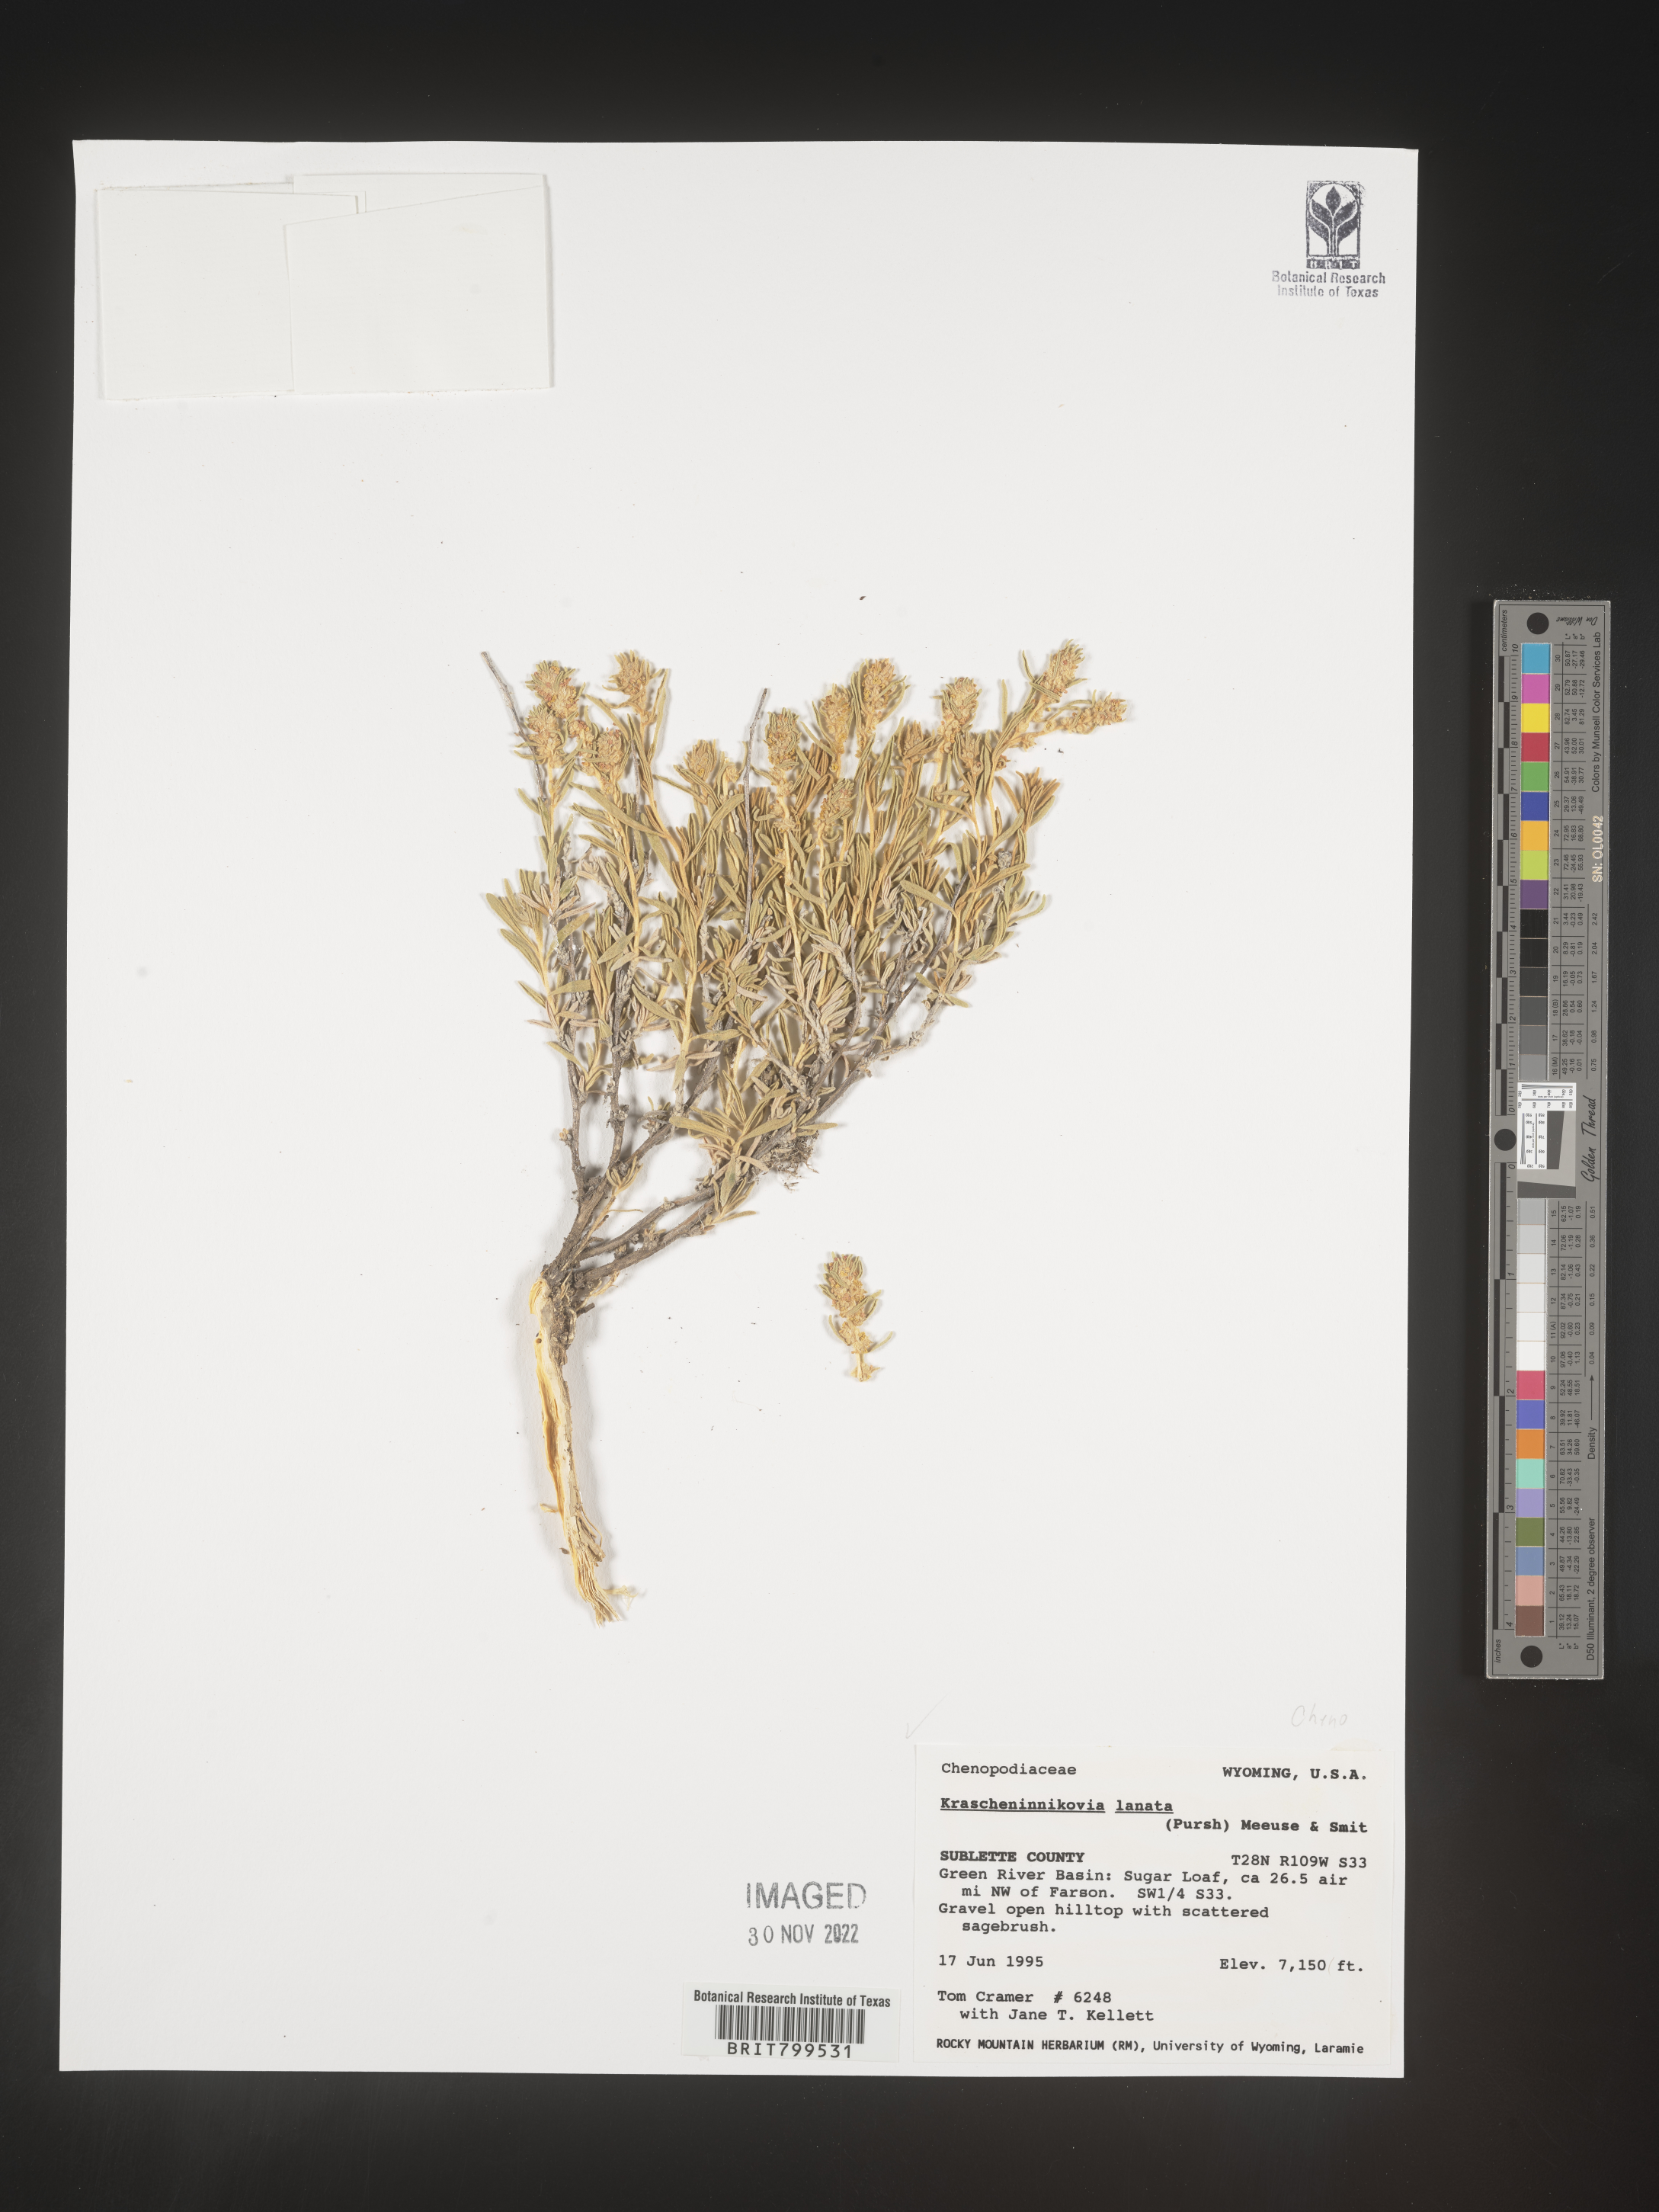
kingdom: Plantae
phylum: Tracheophyta
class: Magnoliopsida
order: Caryophyllales
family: Amaranthaceae
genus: Krascheninnikovia
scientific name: Krascheninnikovia
